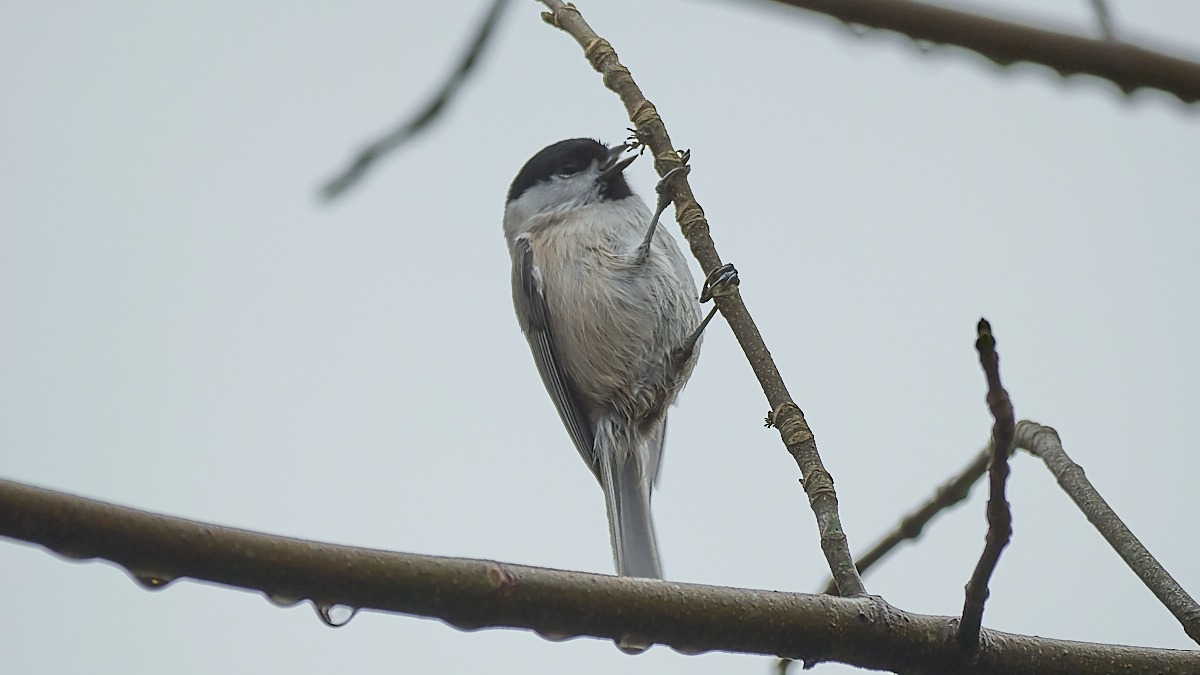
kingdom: Animalia
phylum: Chordata
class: Aves
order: Passeriformes
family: Paridae
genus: Poecile
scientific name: Poecile palustris
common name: Sumpmejse
